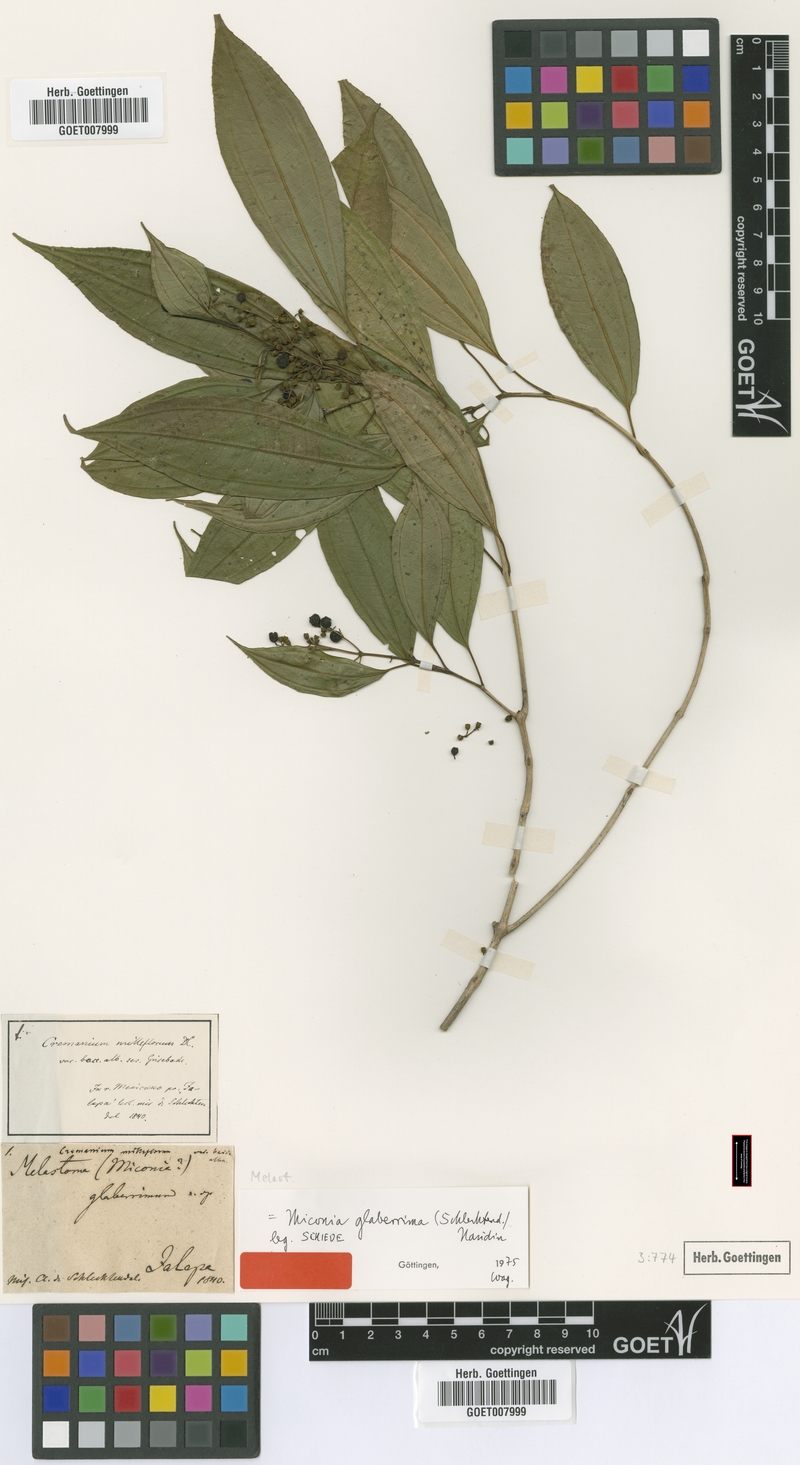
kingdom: Plantae
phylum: Tracheophyta
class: Magnoliopsida
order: Myrtales
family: Melastomataceae
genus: Miconia
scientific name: Miconia glaberrima
